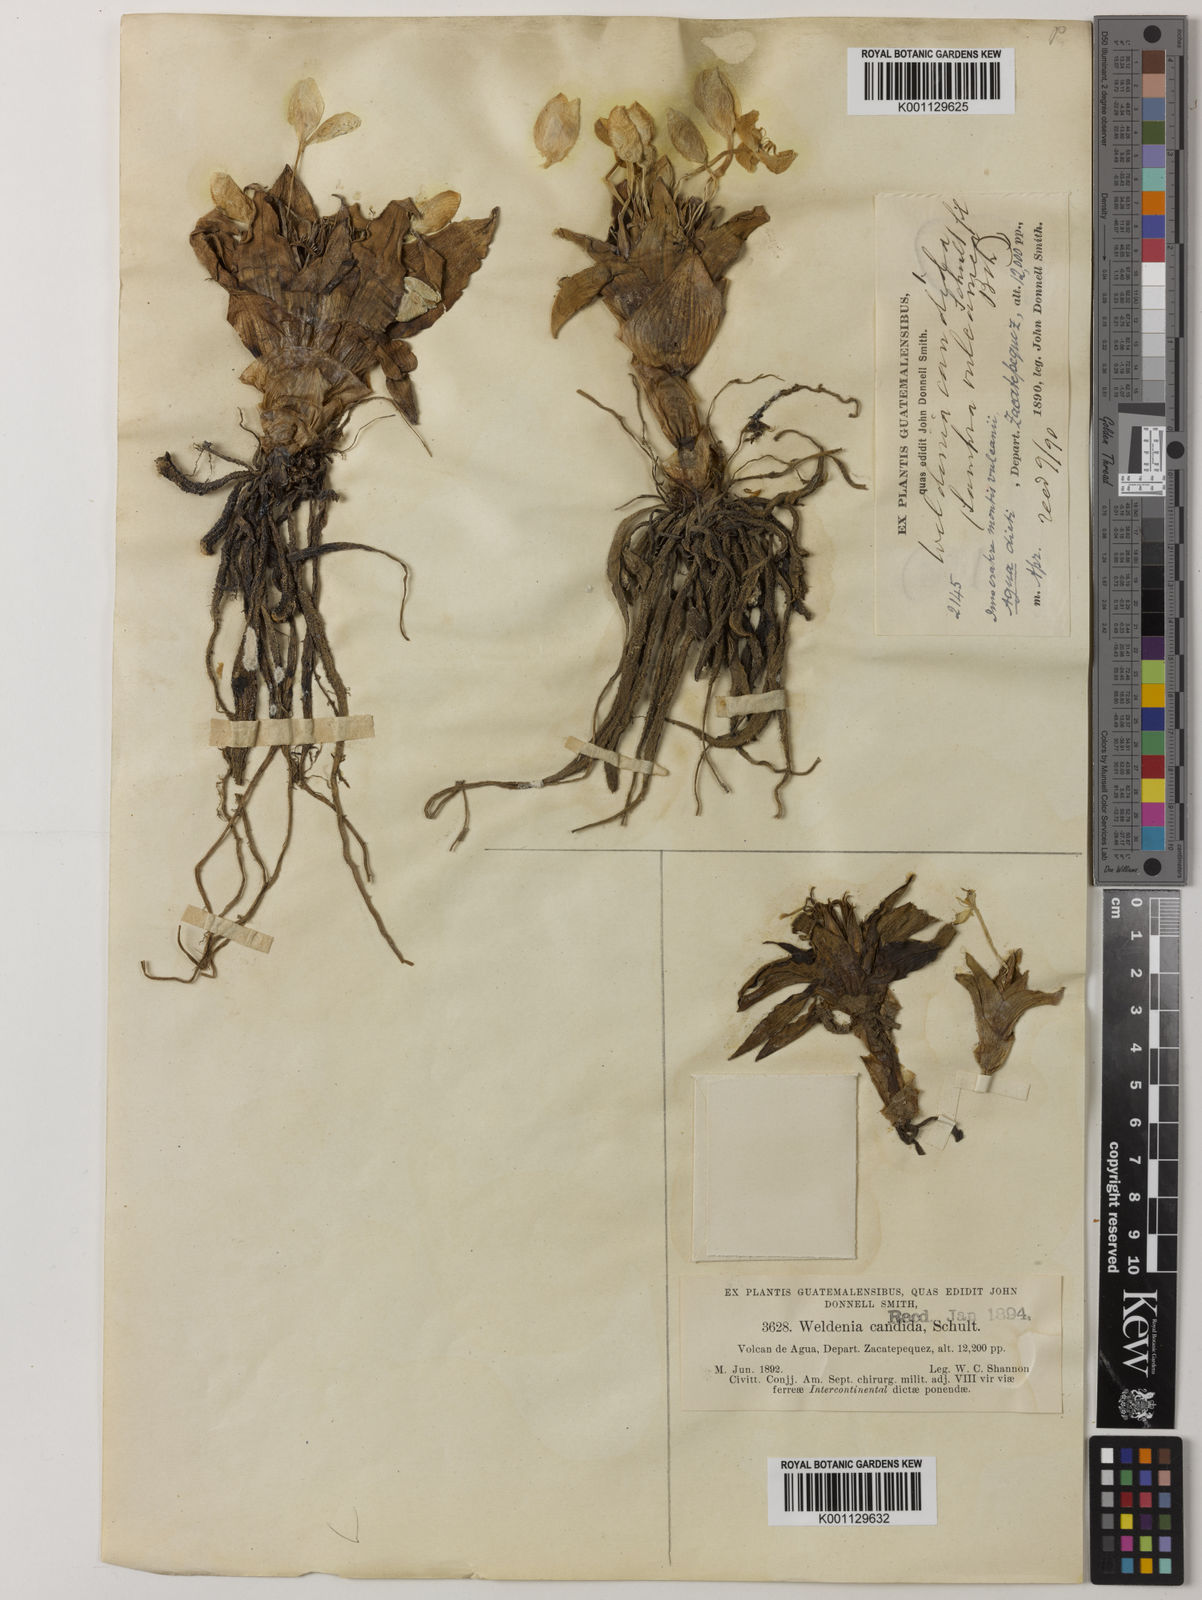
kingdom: Plantae
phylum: Tracheophyta
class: Liliopsida
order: Commelinales
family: Commelinaceae
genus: Weldenia
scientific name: Weldenia candida
